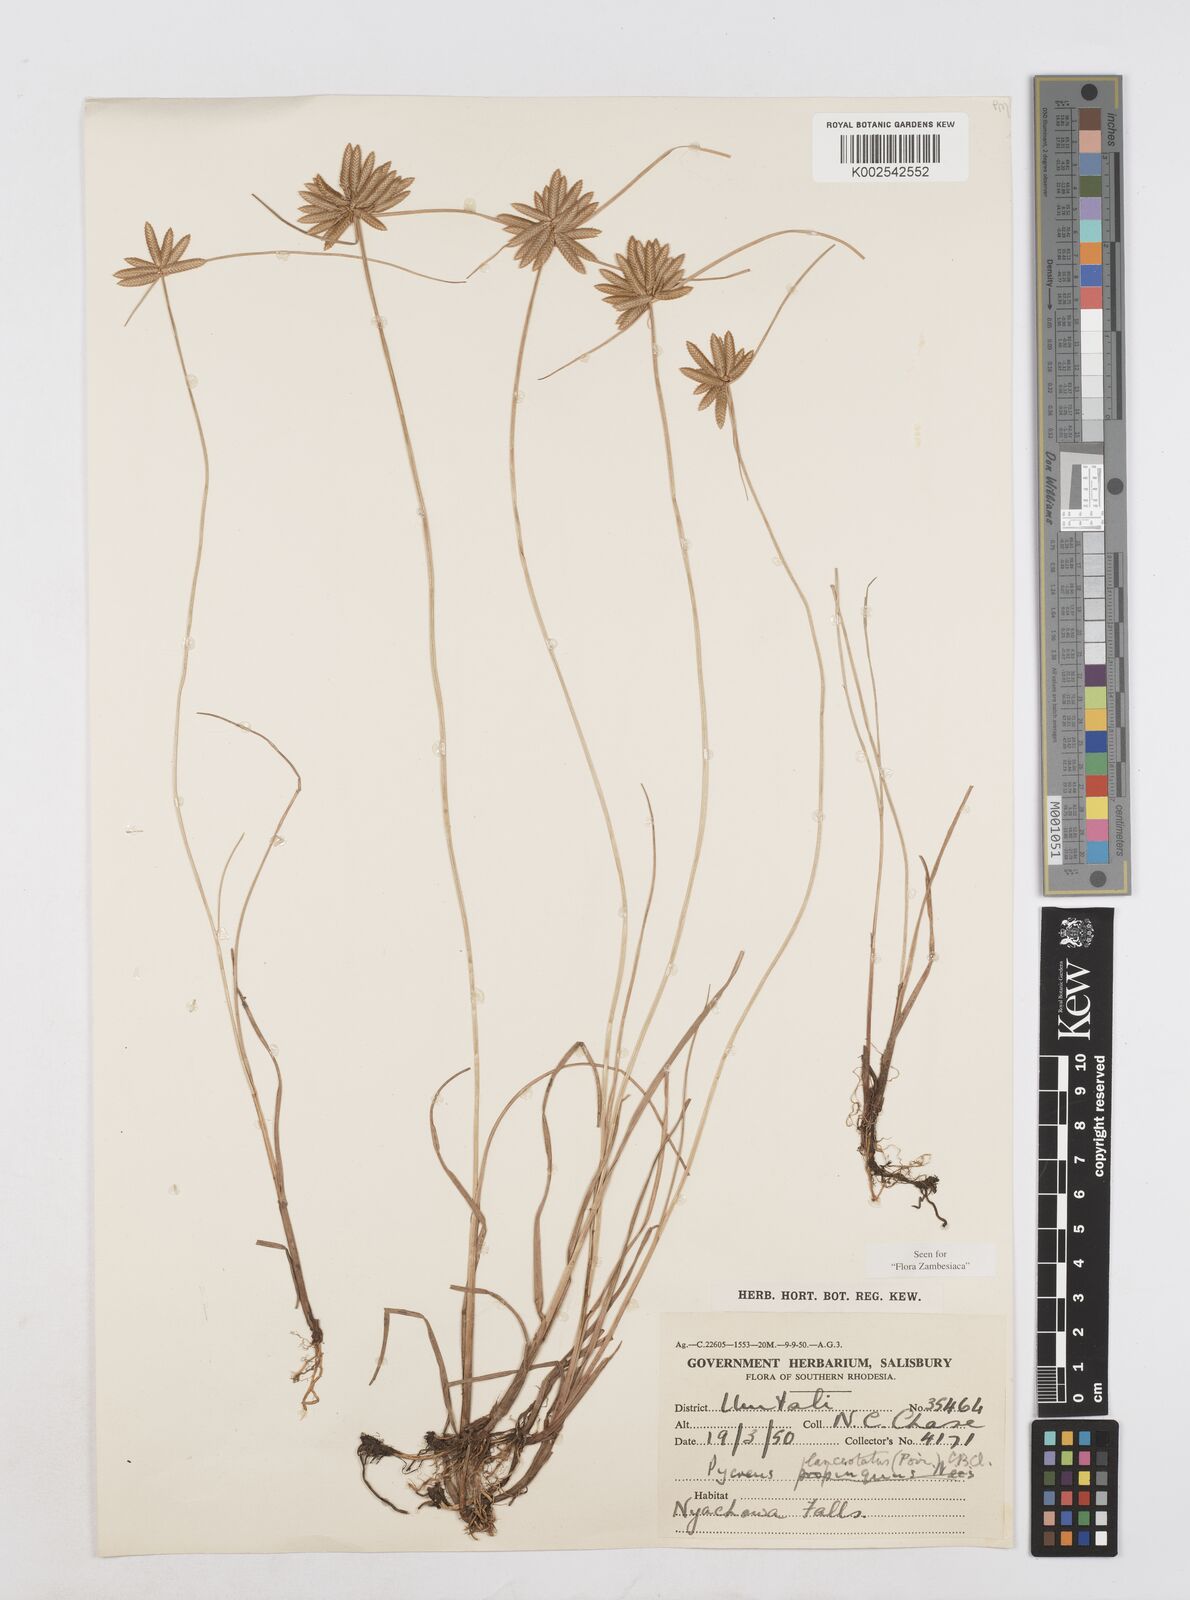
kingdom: Plantae
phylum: Tracheophyta
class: Liliopsida
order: Poales
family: Cyperaceae
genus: Cyperus
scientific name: Cyperus lanceolatus
